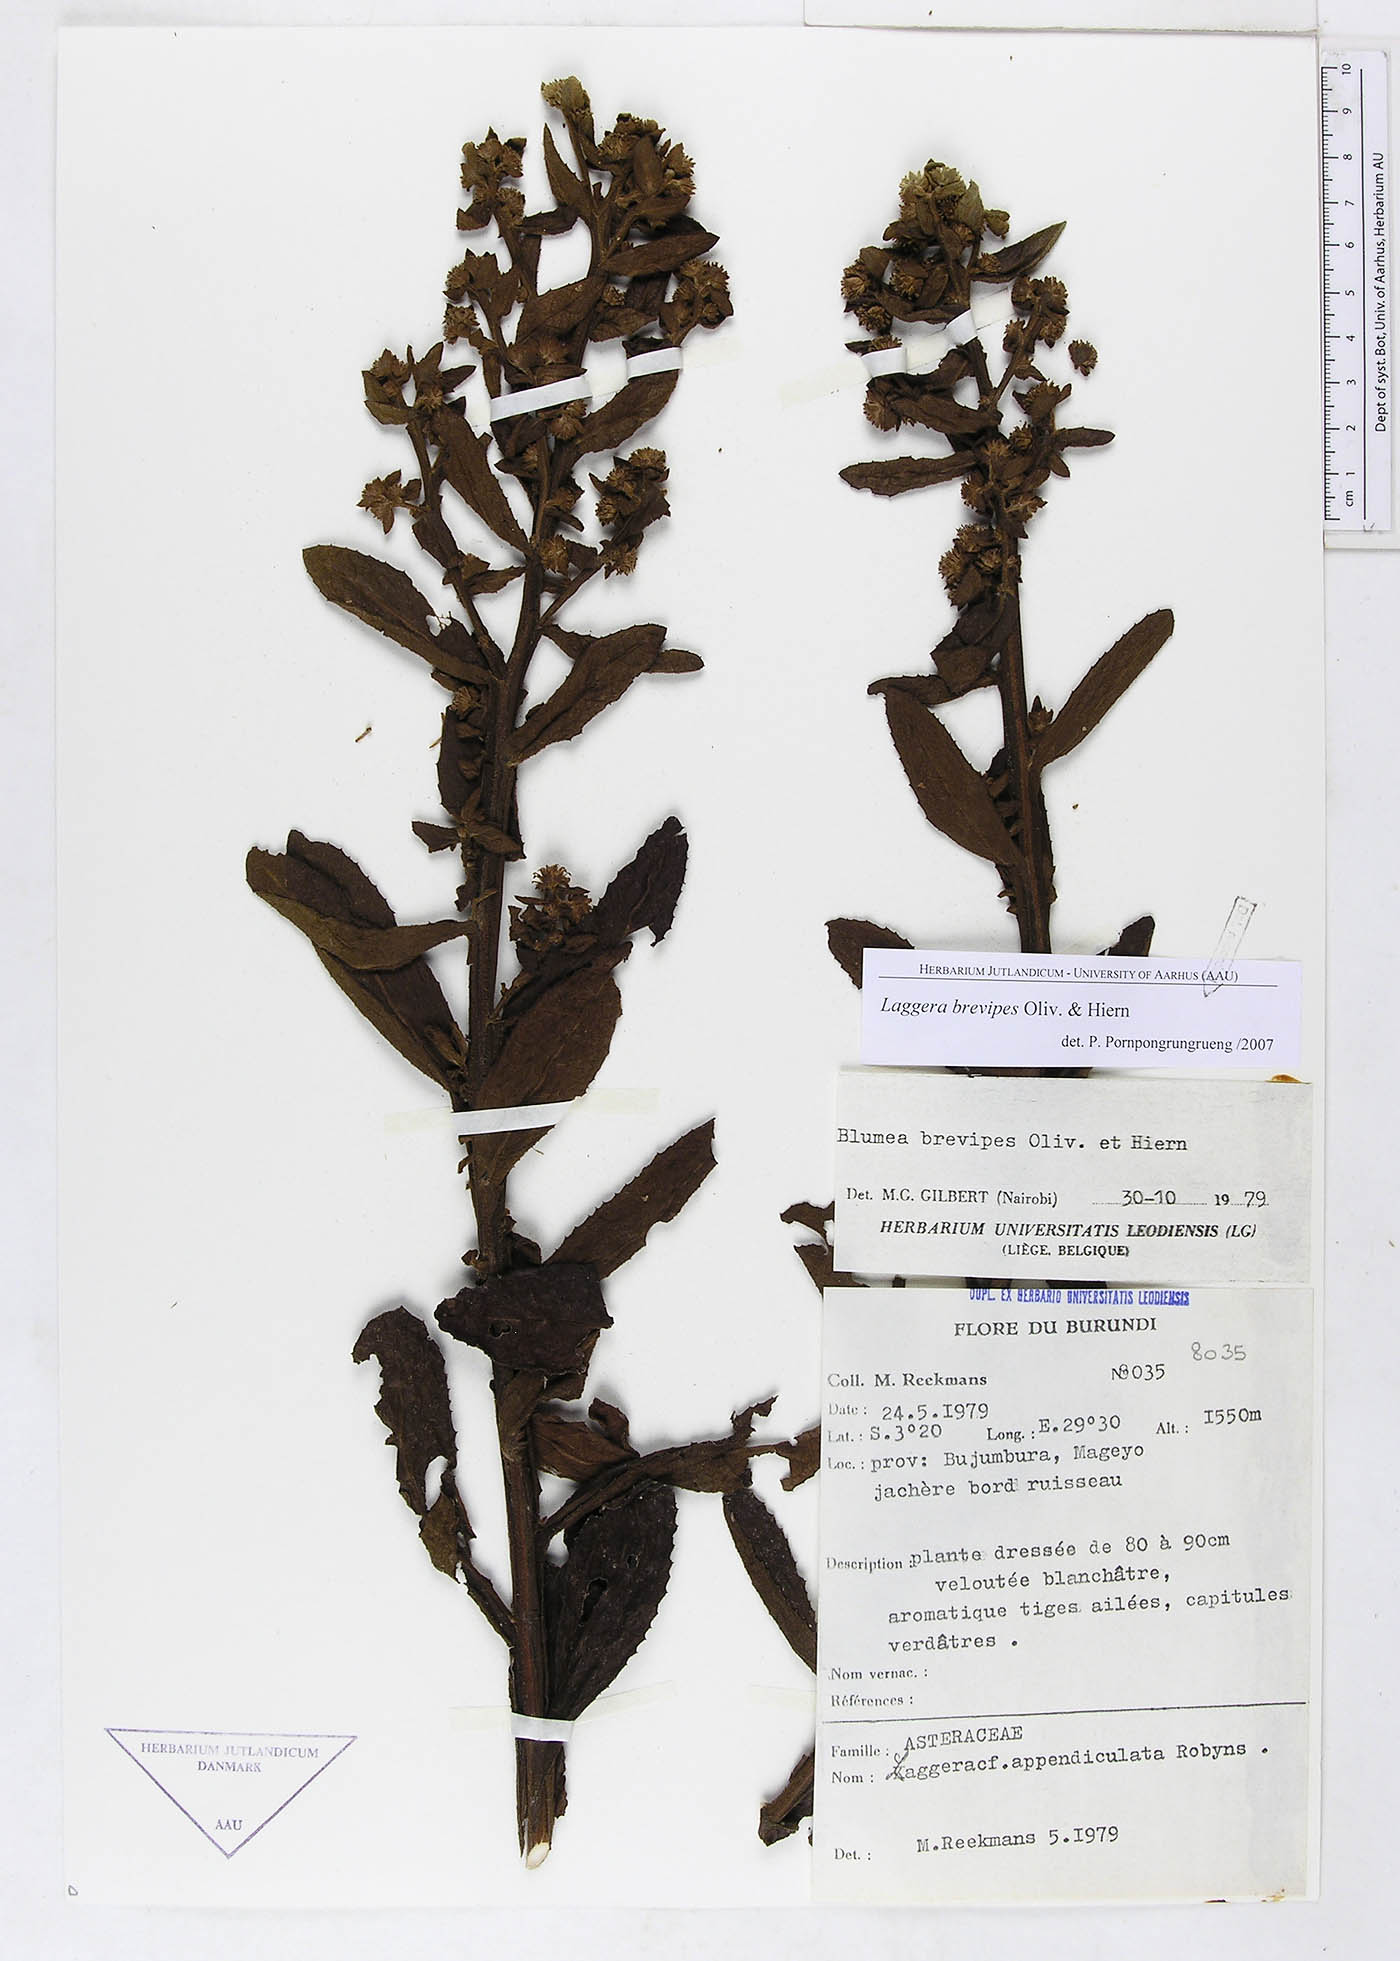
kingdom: Plantae
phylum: Tracheophyta
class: Magnoliopsida
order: Asterales
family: Asteraceae
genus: Laggera
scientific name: Laggera brevipes
